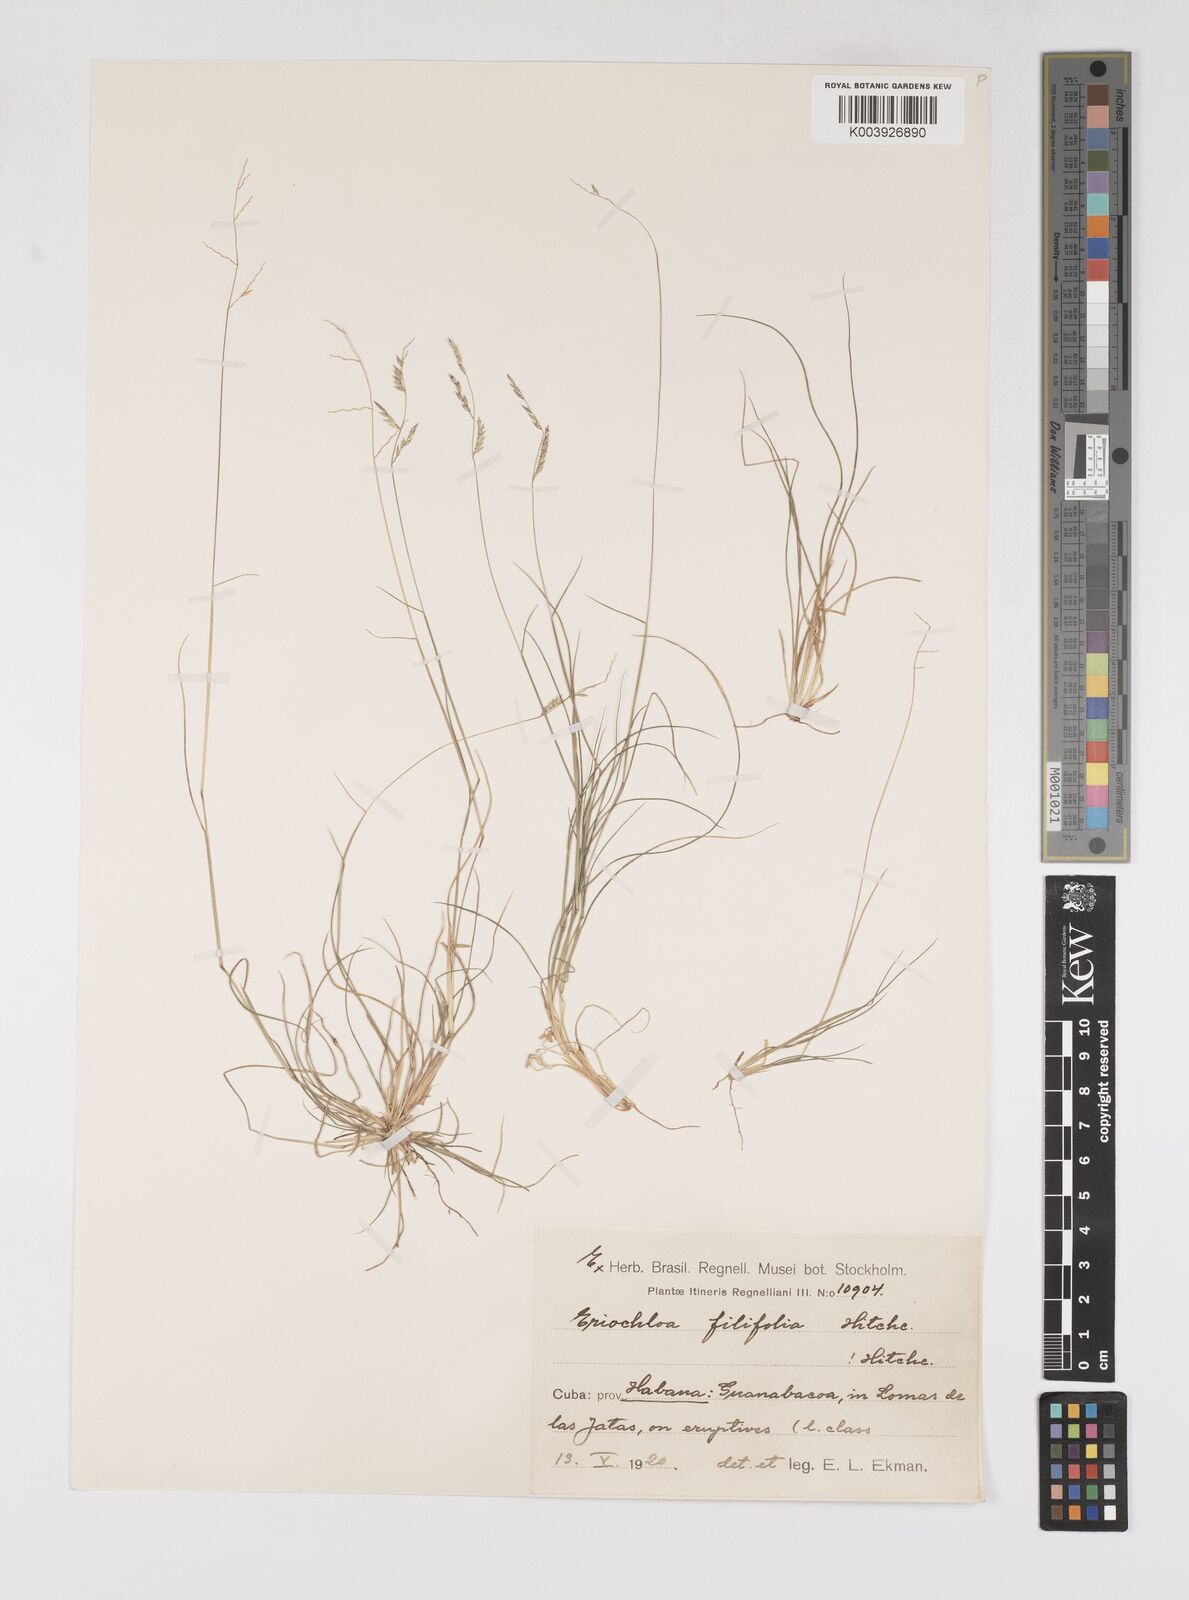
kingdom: Plantae
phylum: Tracheophyta
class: Liliopsida
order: Poales
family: Poaceae
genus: Eriochloa
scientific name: Eriochloa setosa
